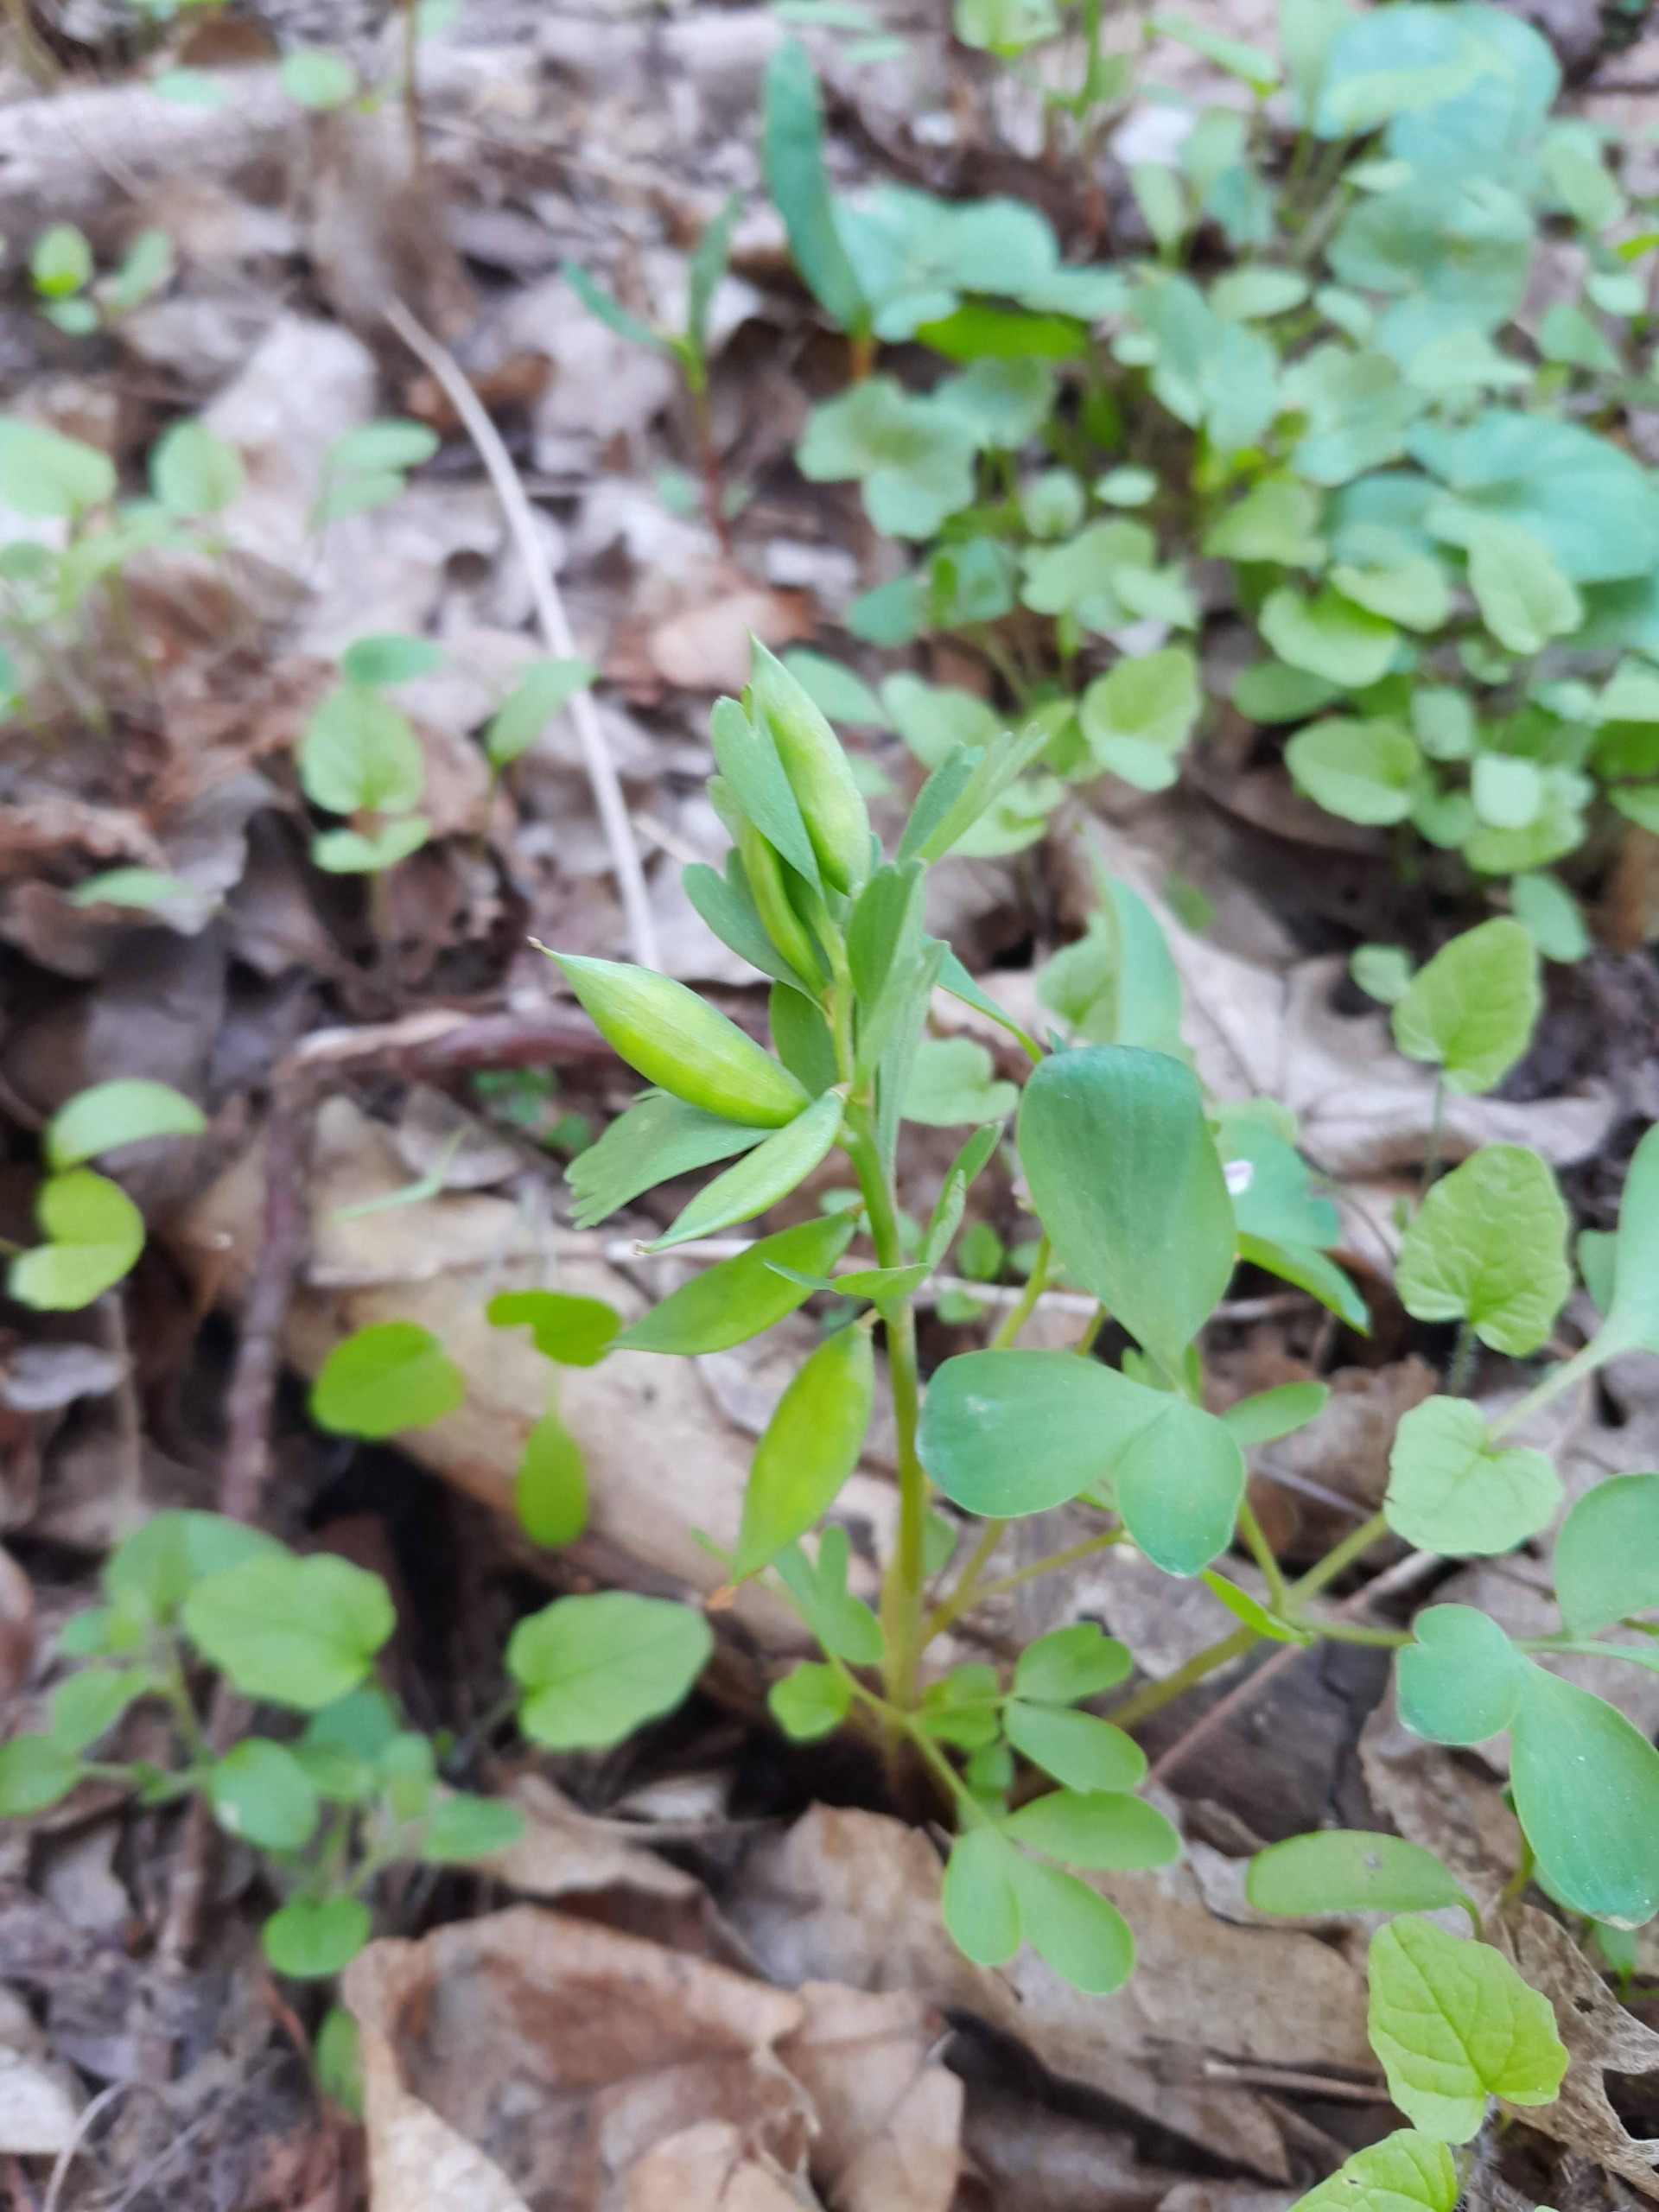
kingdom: Plantae
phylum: Tracheophyta
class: Magnoliopsida
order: Ranunculales
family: Papaveraceae
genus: Corydalis
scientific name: Corydalis pumila
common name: Finger-lærkespore
